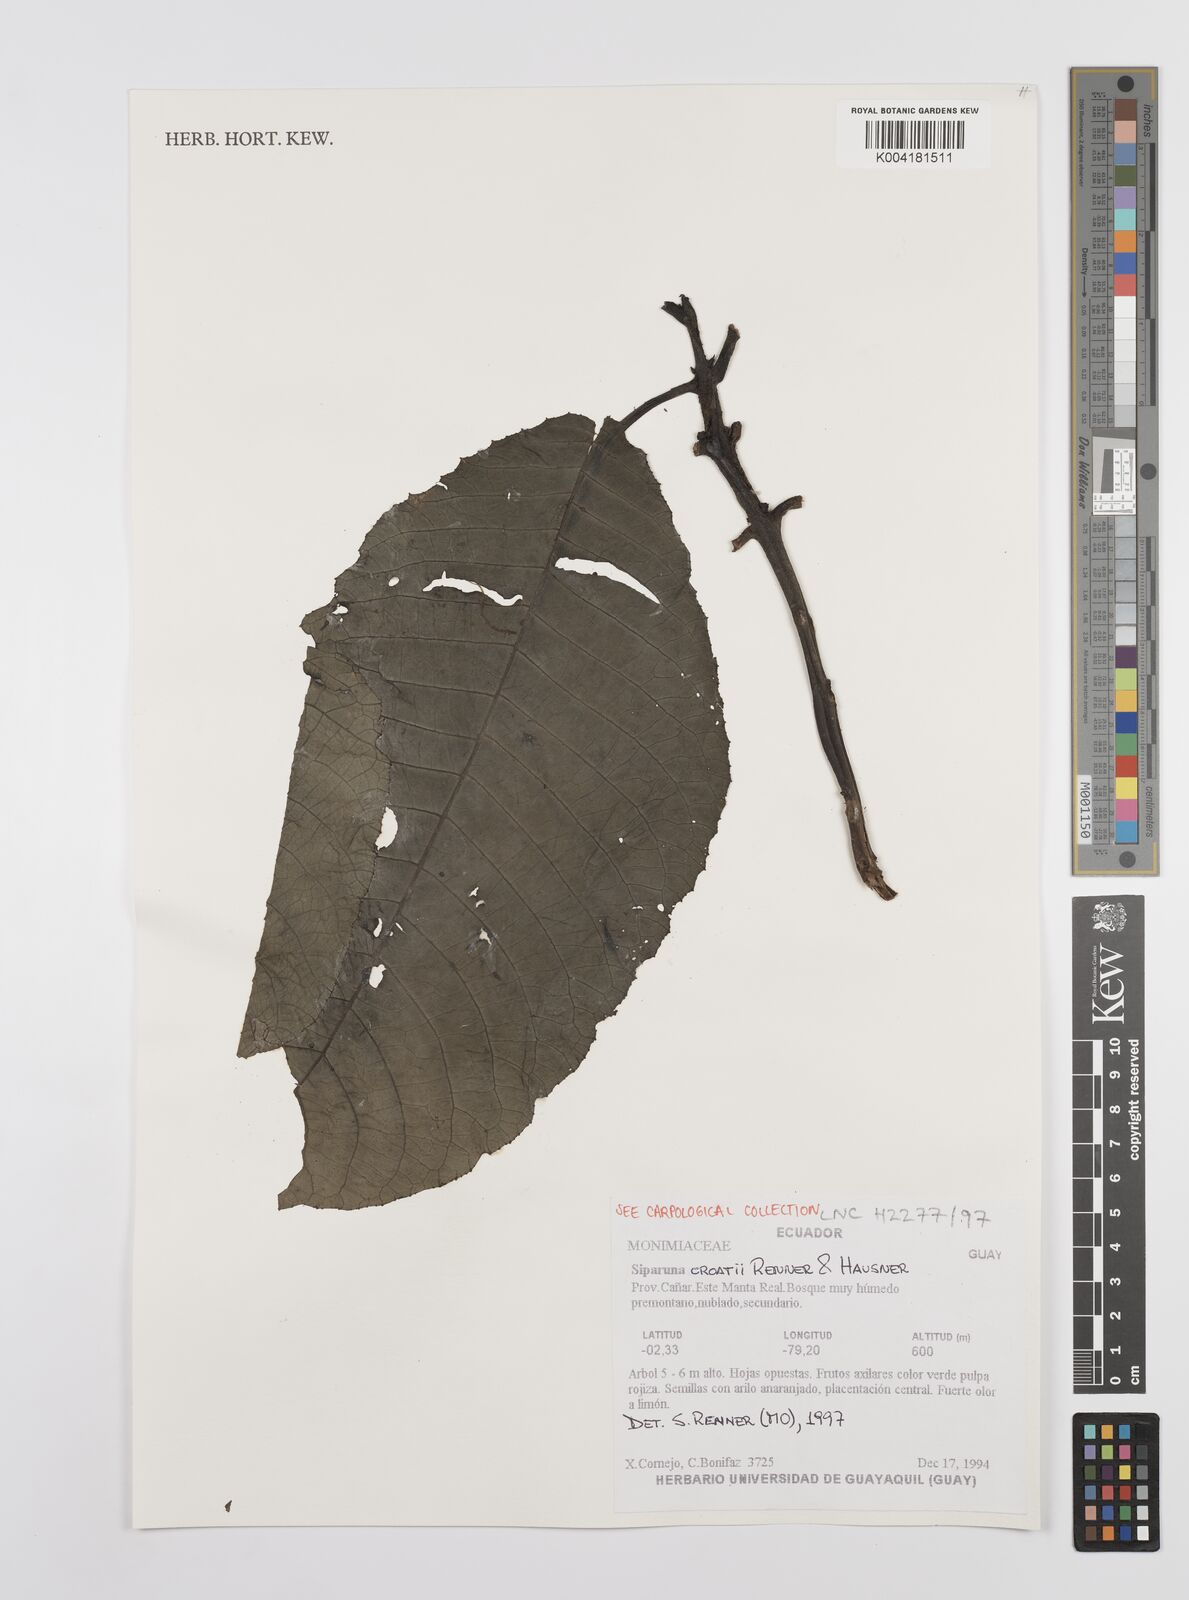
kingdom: Plantae
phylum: Tracheophyta
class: Magnoliopsida
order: Laurales
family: Siparunaceae
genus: Siparuna
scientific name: Siparuna croatii
